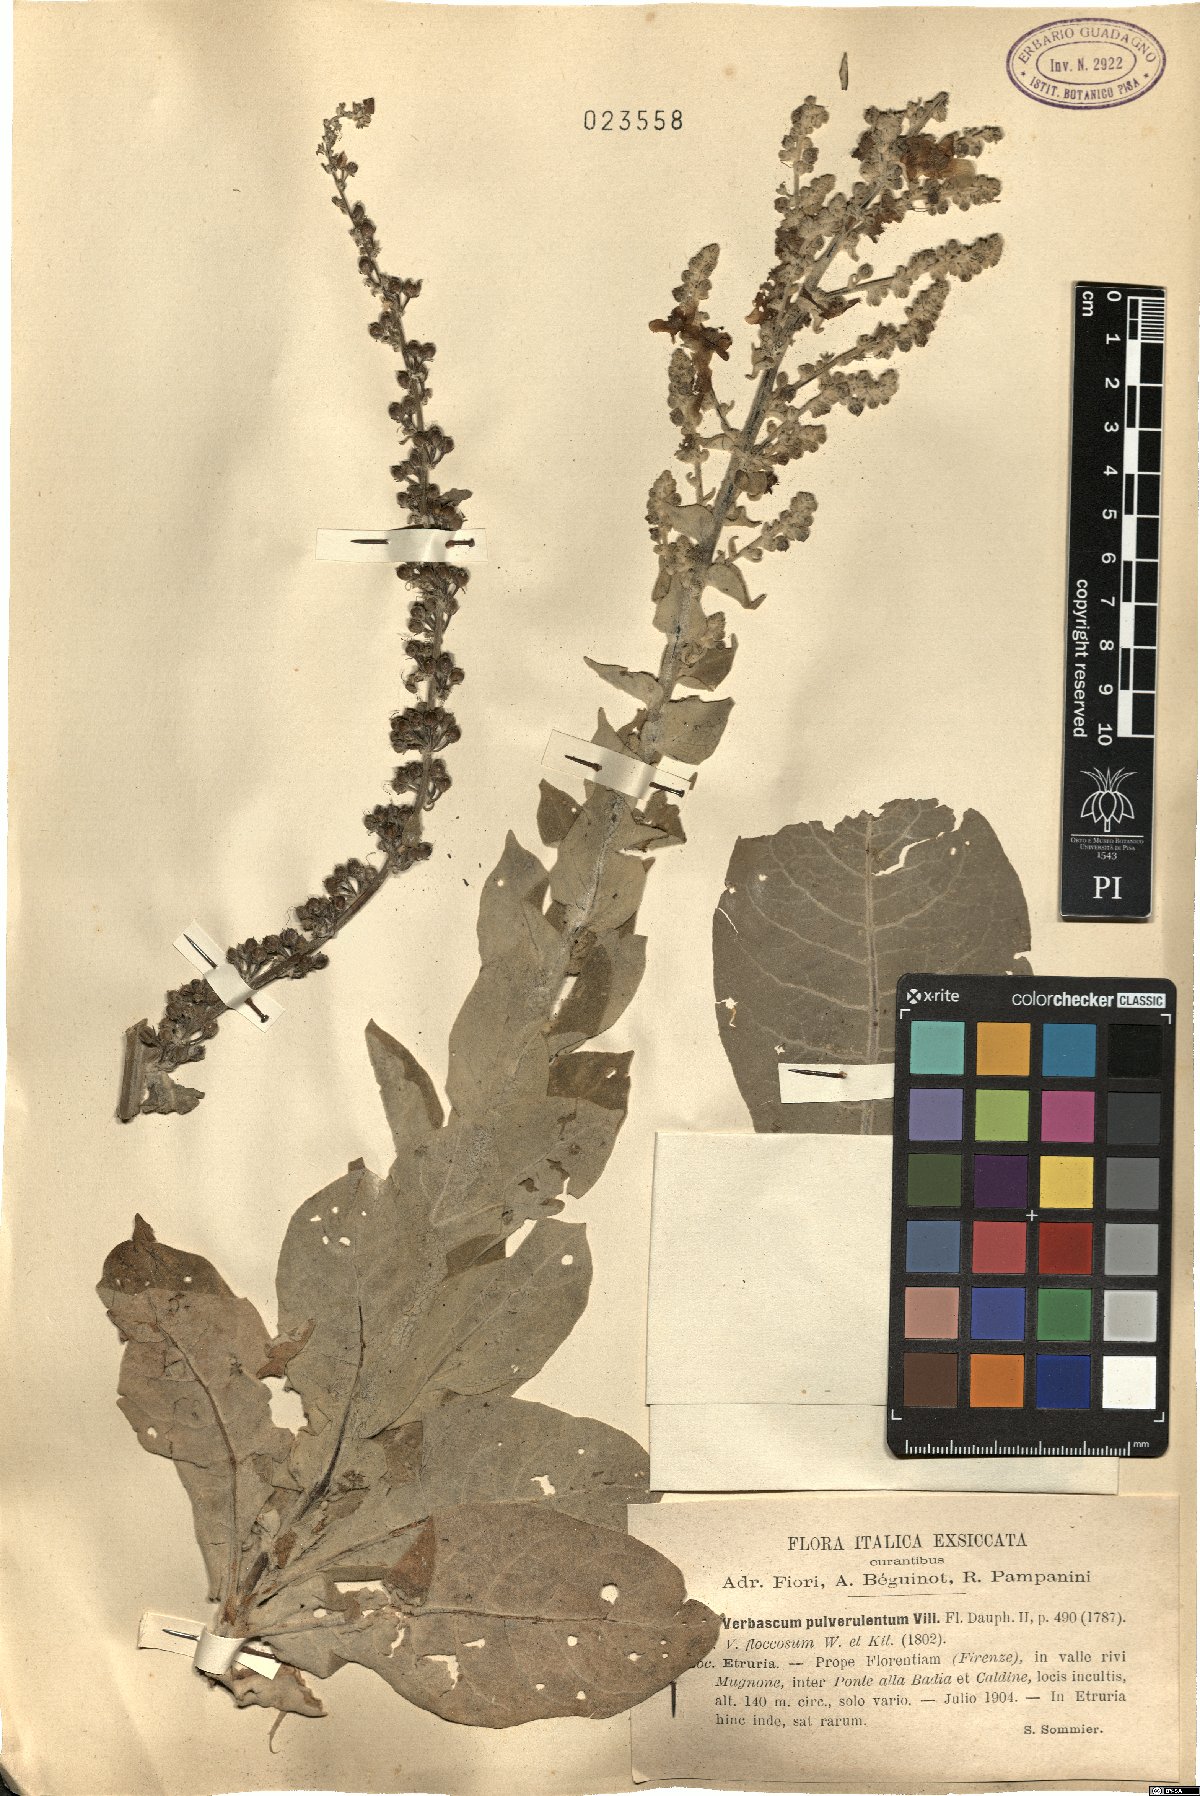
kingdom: Plantae
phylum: Tracheophyta
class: Magnoliopsida
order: Lamiales
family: Scrophulariaceae
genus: Verbascum
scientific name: Verbascum pulverulentum
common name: Broad-leaf mullein
